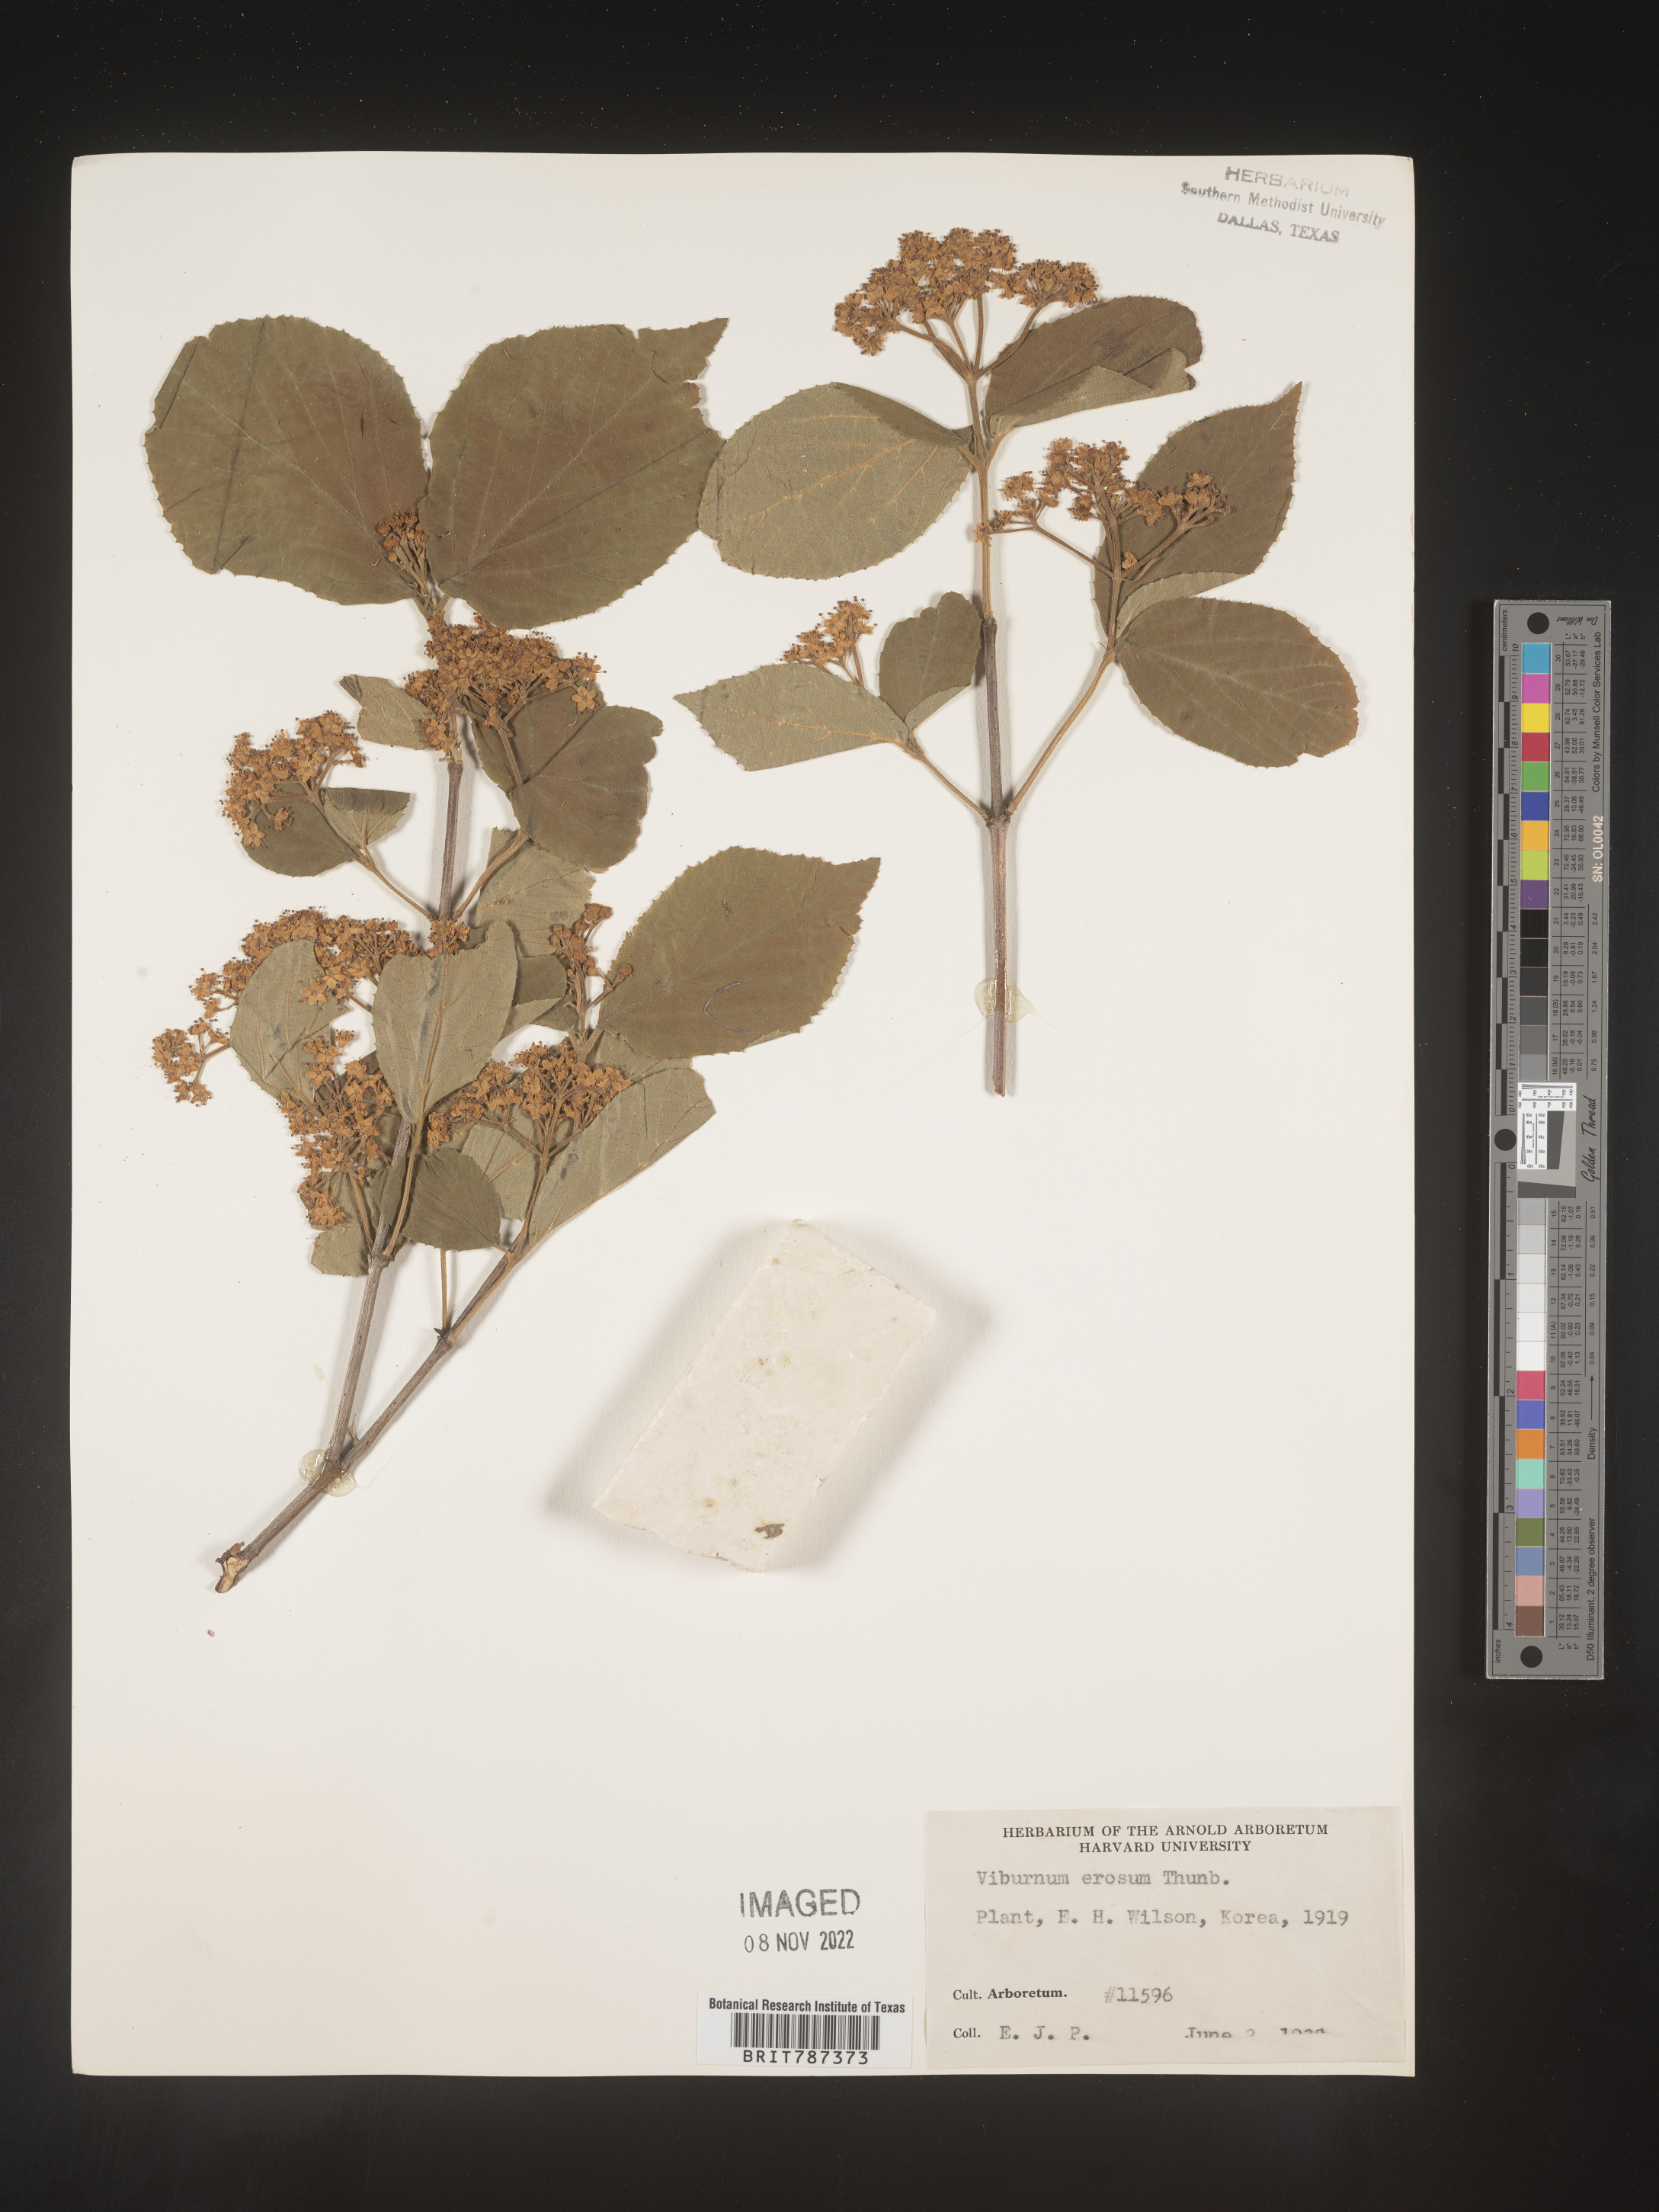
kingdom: Plantae
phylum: Tracheophyta
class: Magnoliopsida
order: Dipsacales
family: Viburnaceae
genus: Viburnum
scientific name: Viburnum
